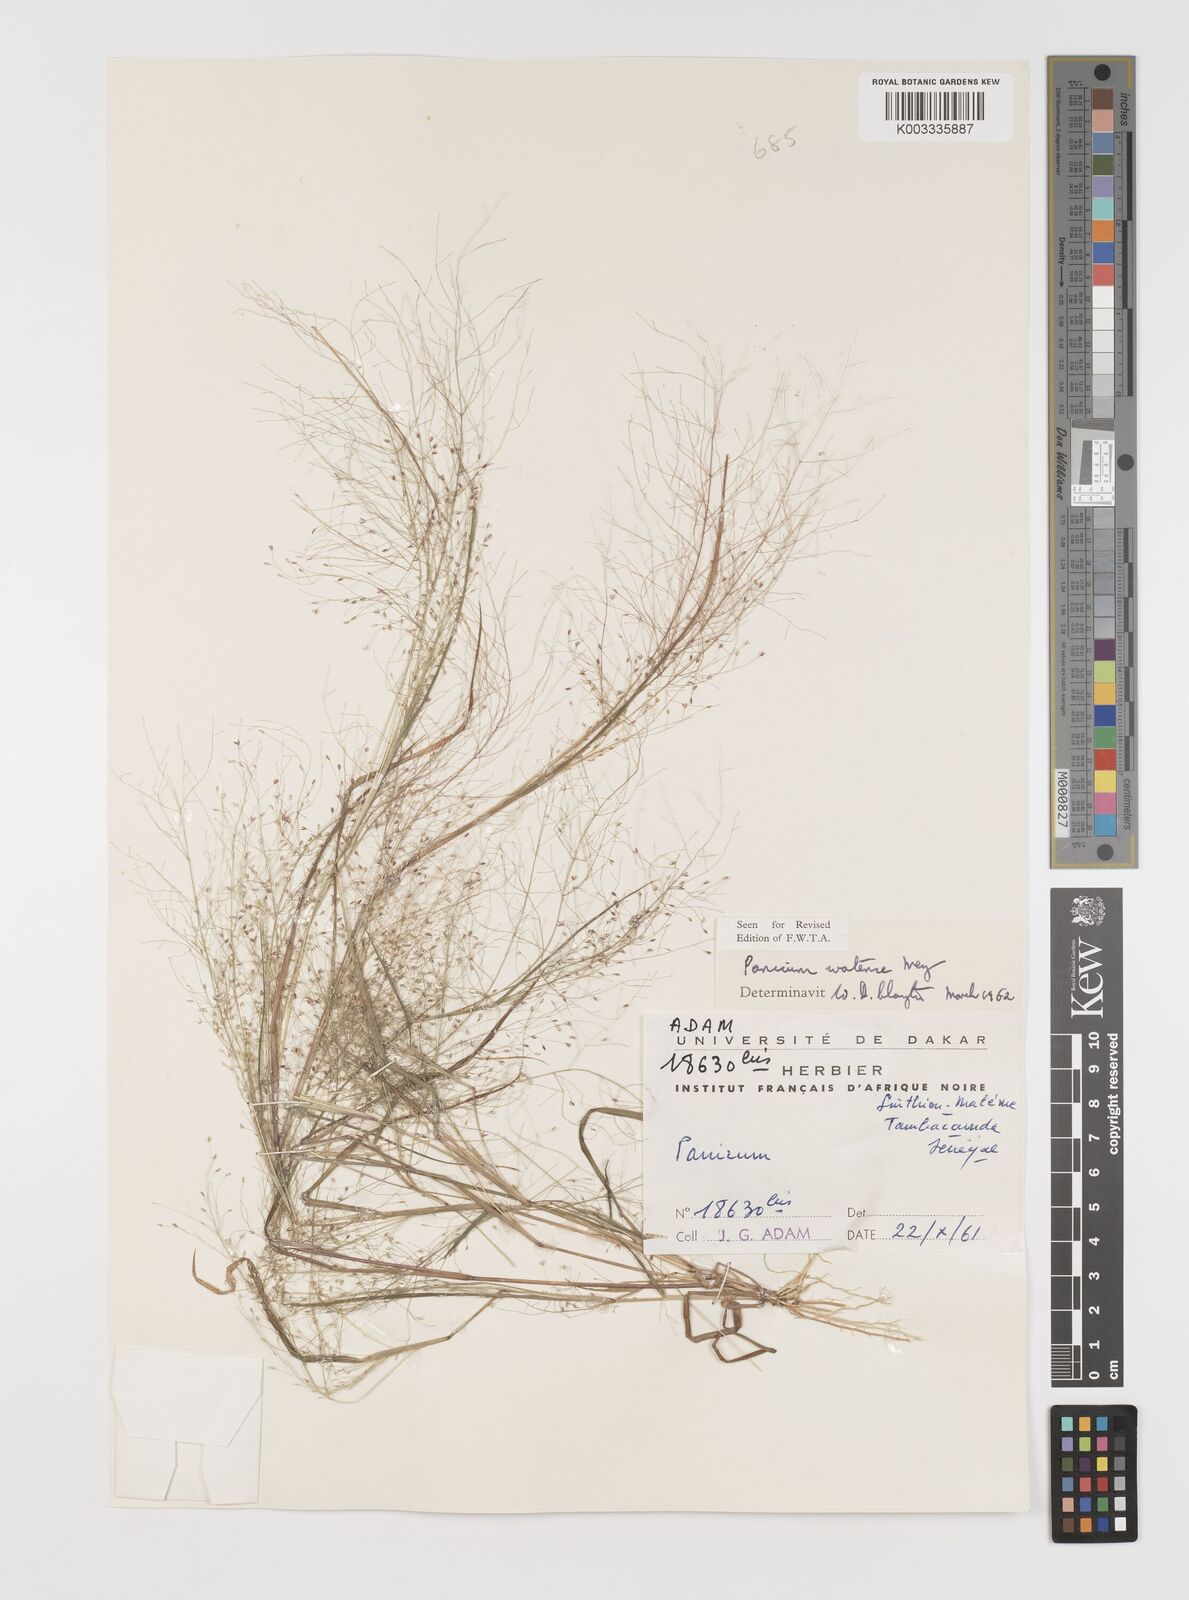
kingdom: Plantae
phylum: Tracheophyta
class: Liliopsida
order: Poales
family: Poaceae
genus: Panicum
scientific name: Panicum humile
